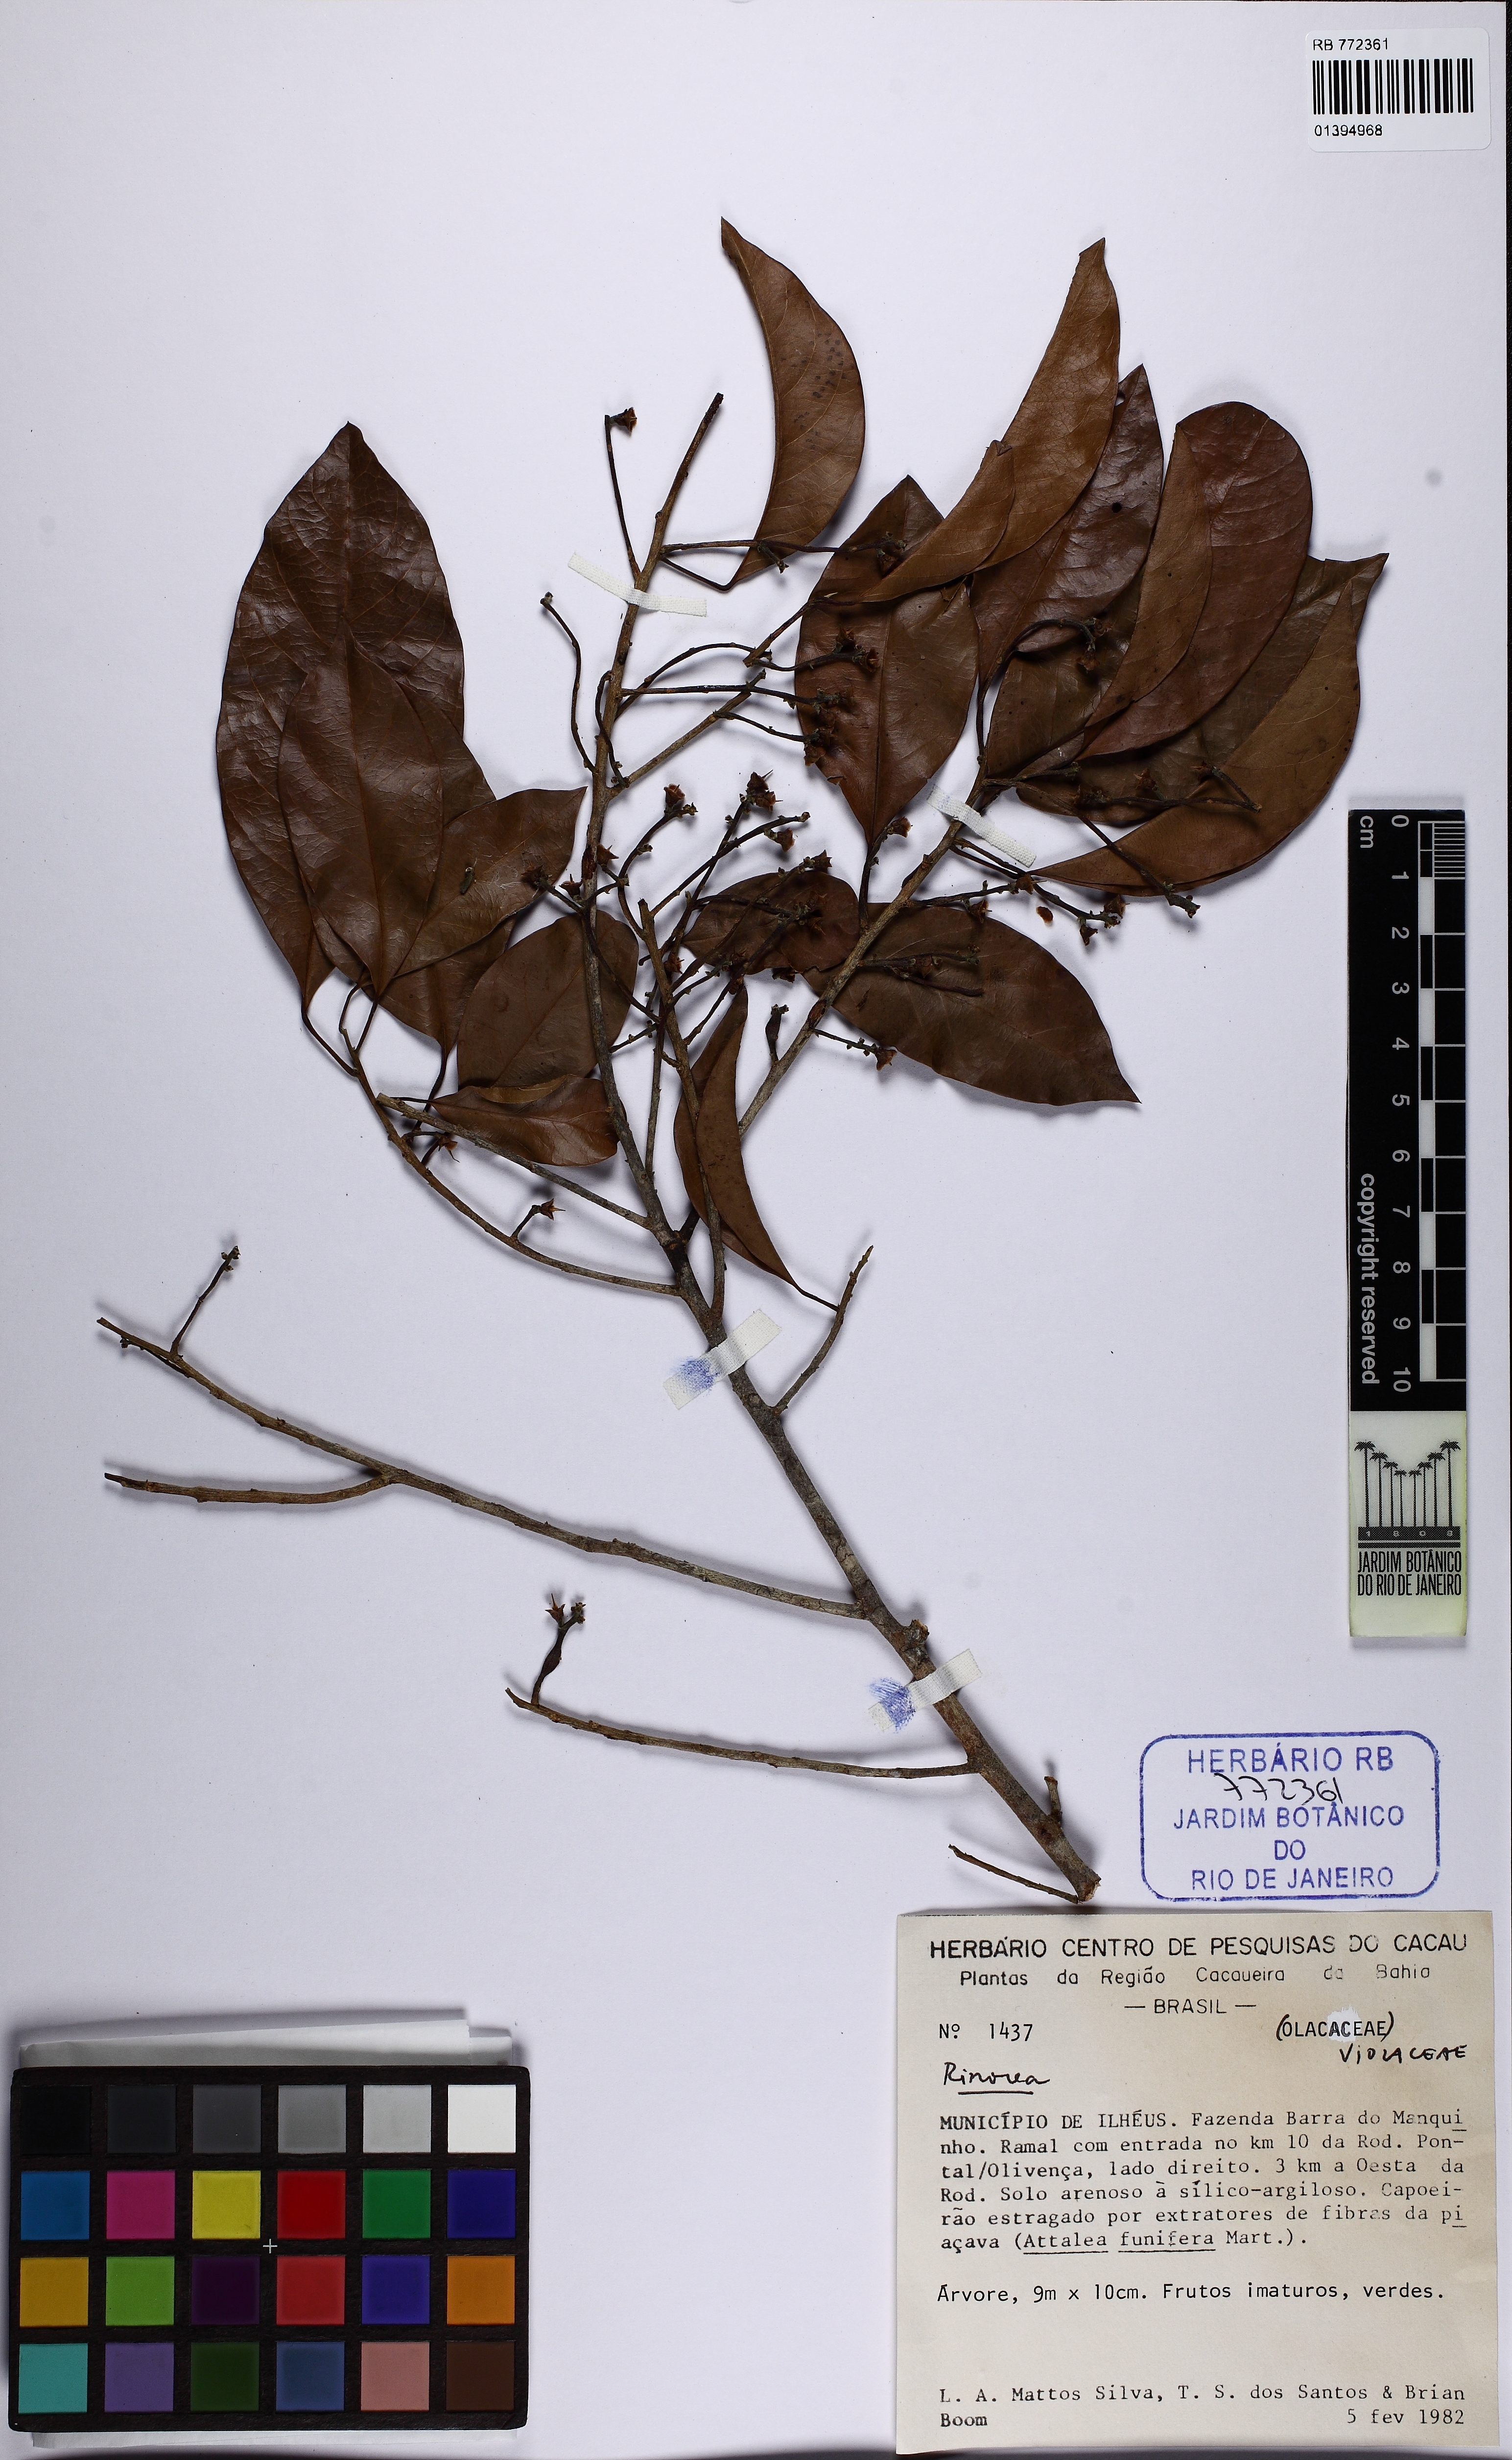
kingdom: Plantae
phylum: Tracheophyta
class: Magnoliopsida
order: Malpighiales
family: Peraceae
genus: Pogonophora
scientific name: Pogonophora schomburgkiana
